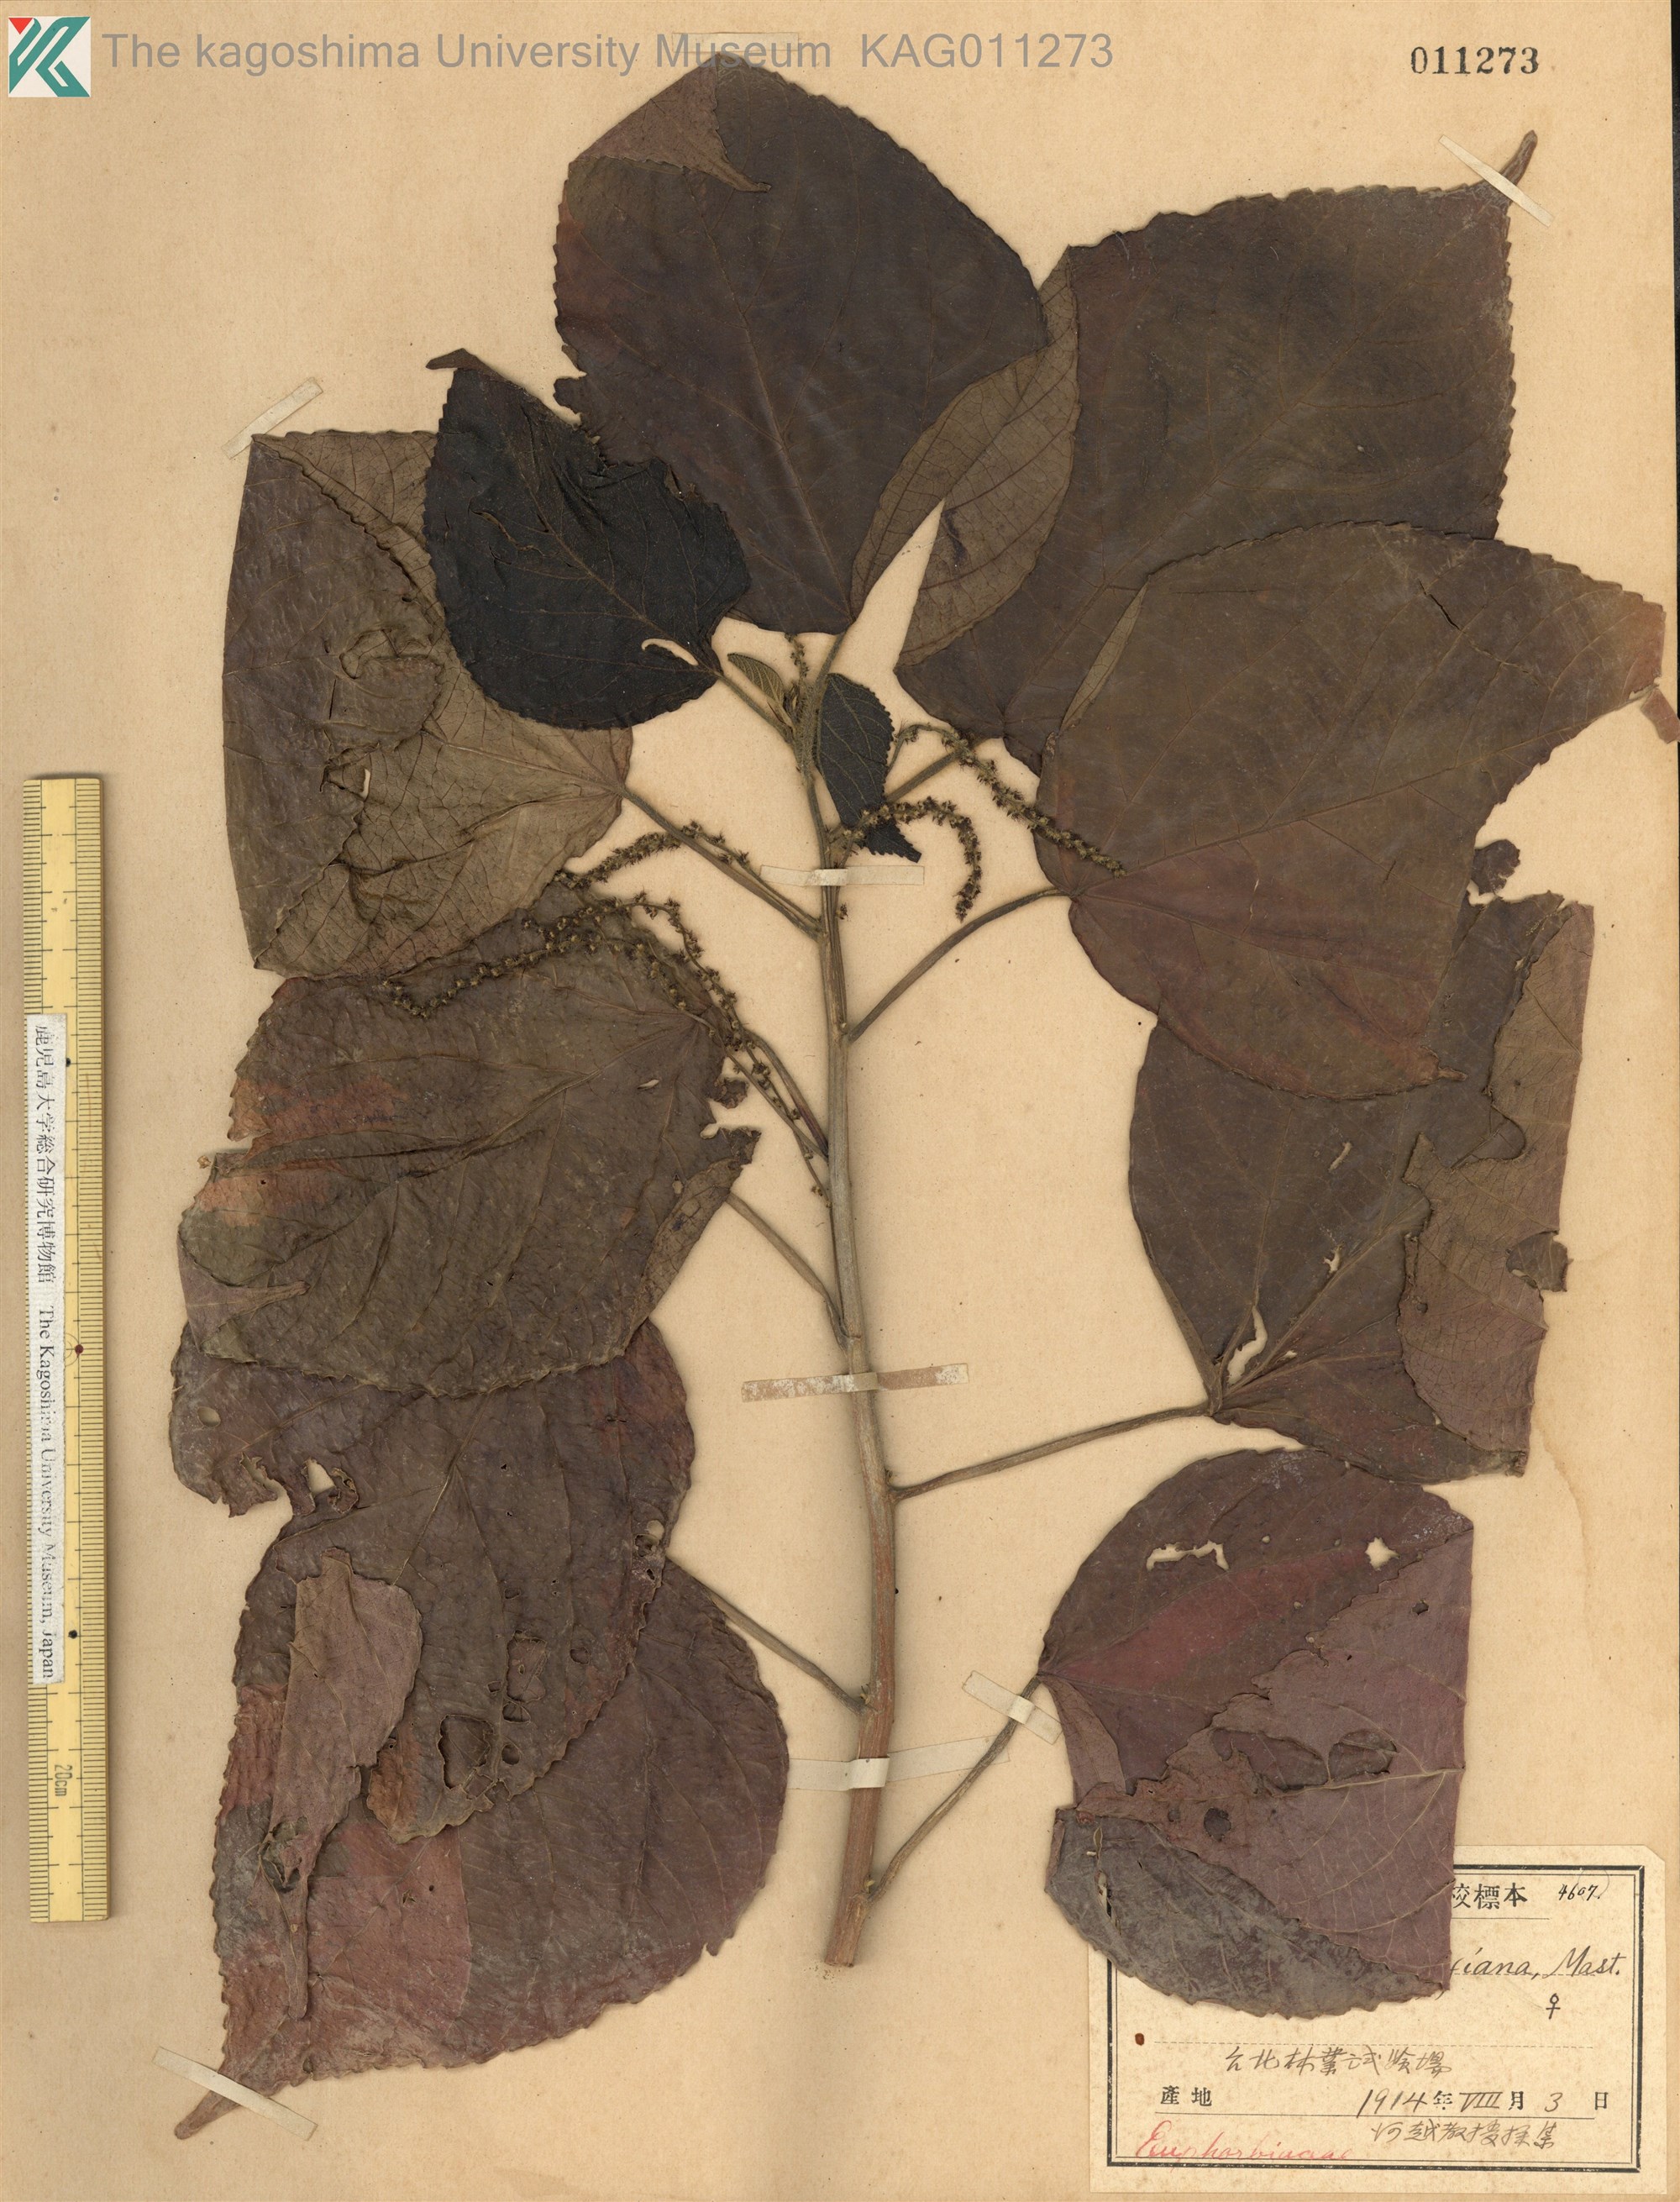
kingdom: Plantae
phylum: Tracheophyta
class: Magnoliopsida
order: Malpighiales
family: Euphorbiaceae
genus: Acalypha
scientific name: Acalypha wilkesiana
